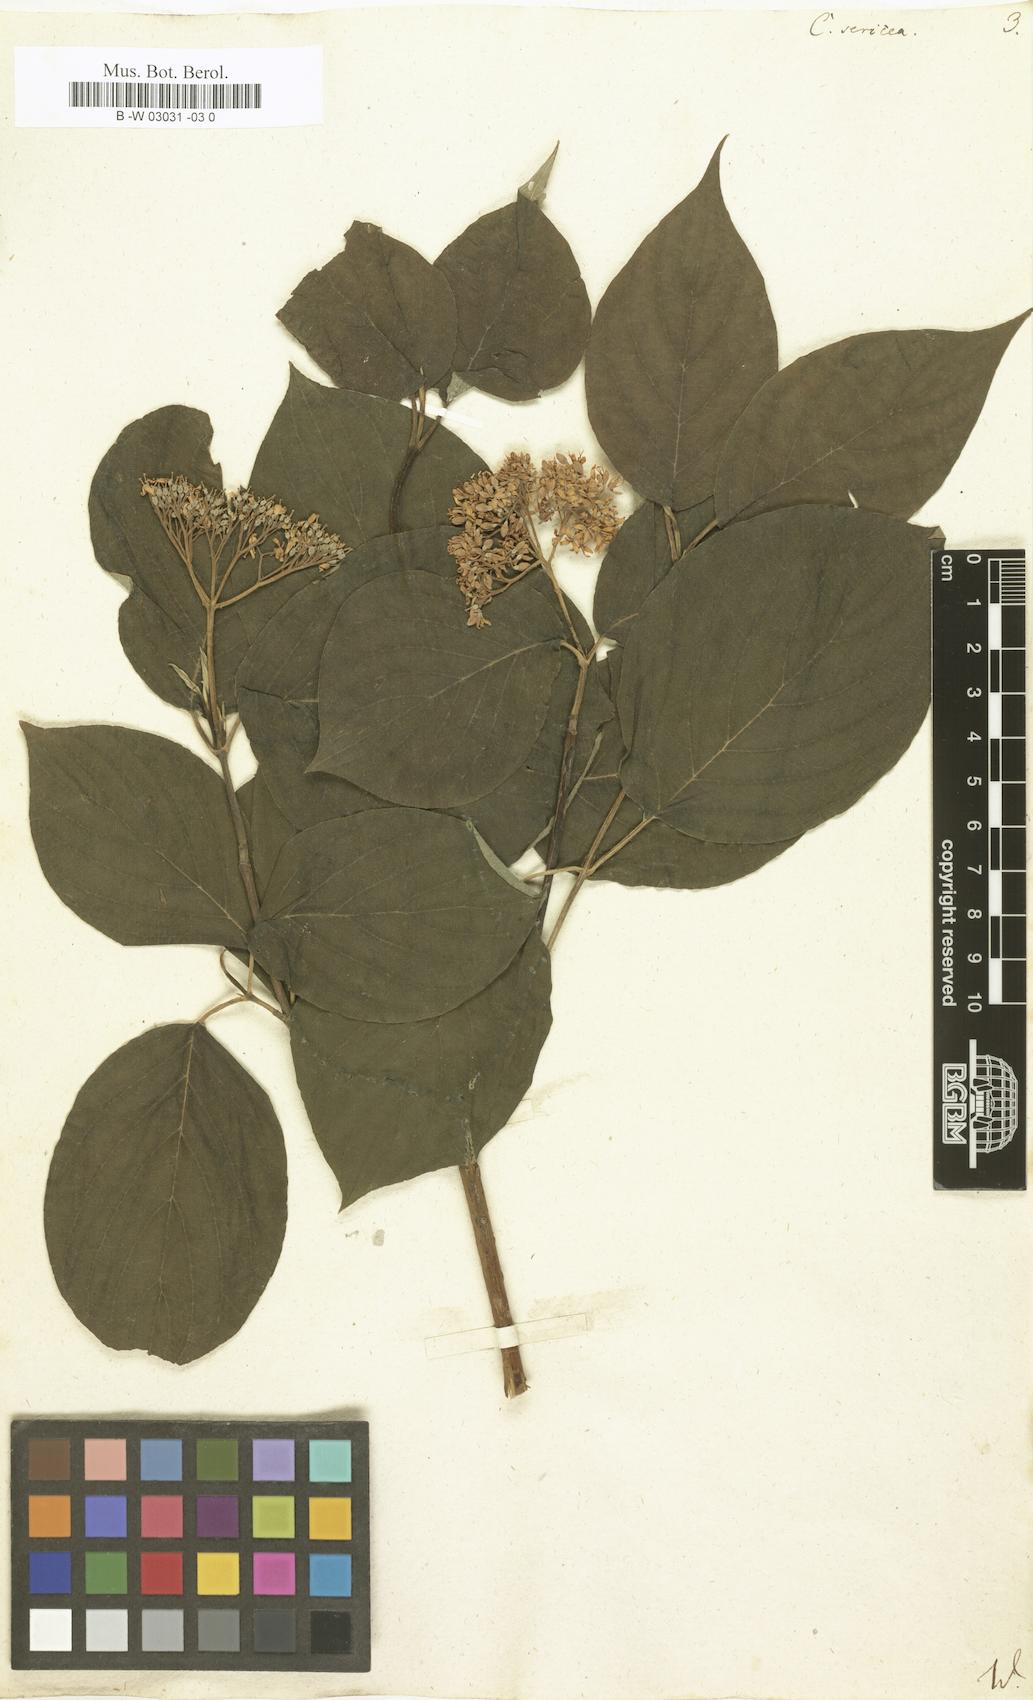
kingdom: Plantae
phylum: Tracheophyta
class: Magnoliopsida
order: Cornales
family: Cornaceae
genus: Cornus
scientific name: Cornus sericea
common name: Red-osier dogwood
